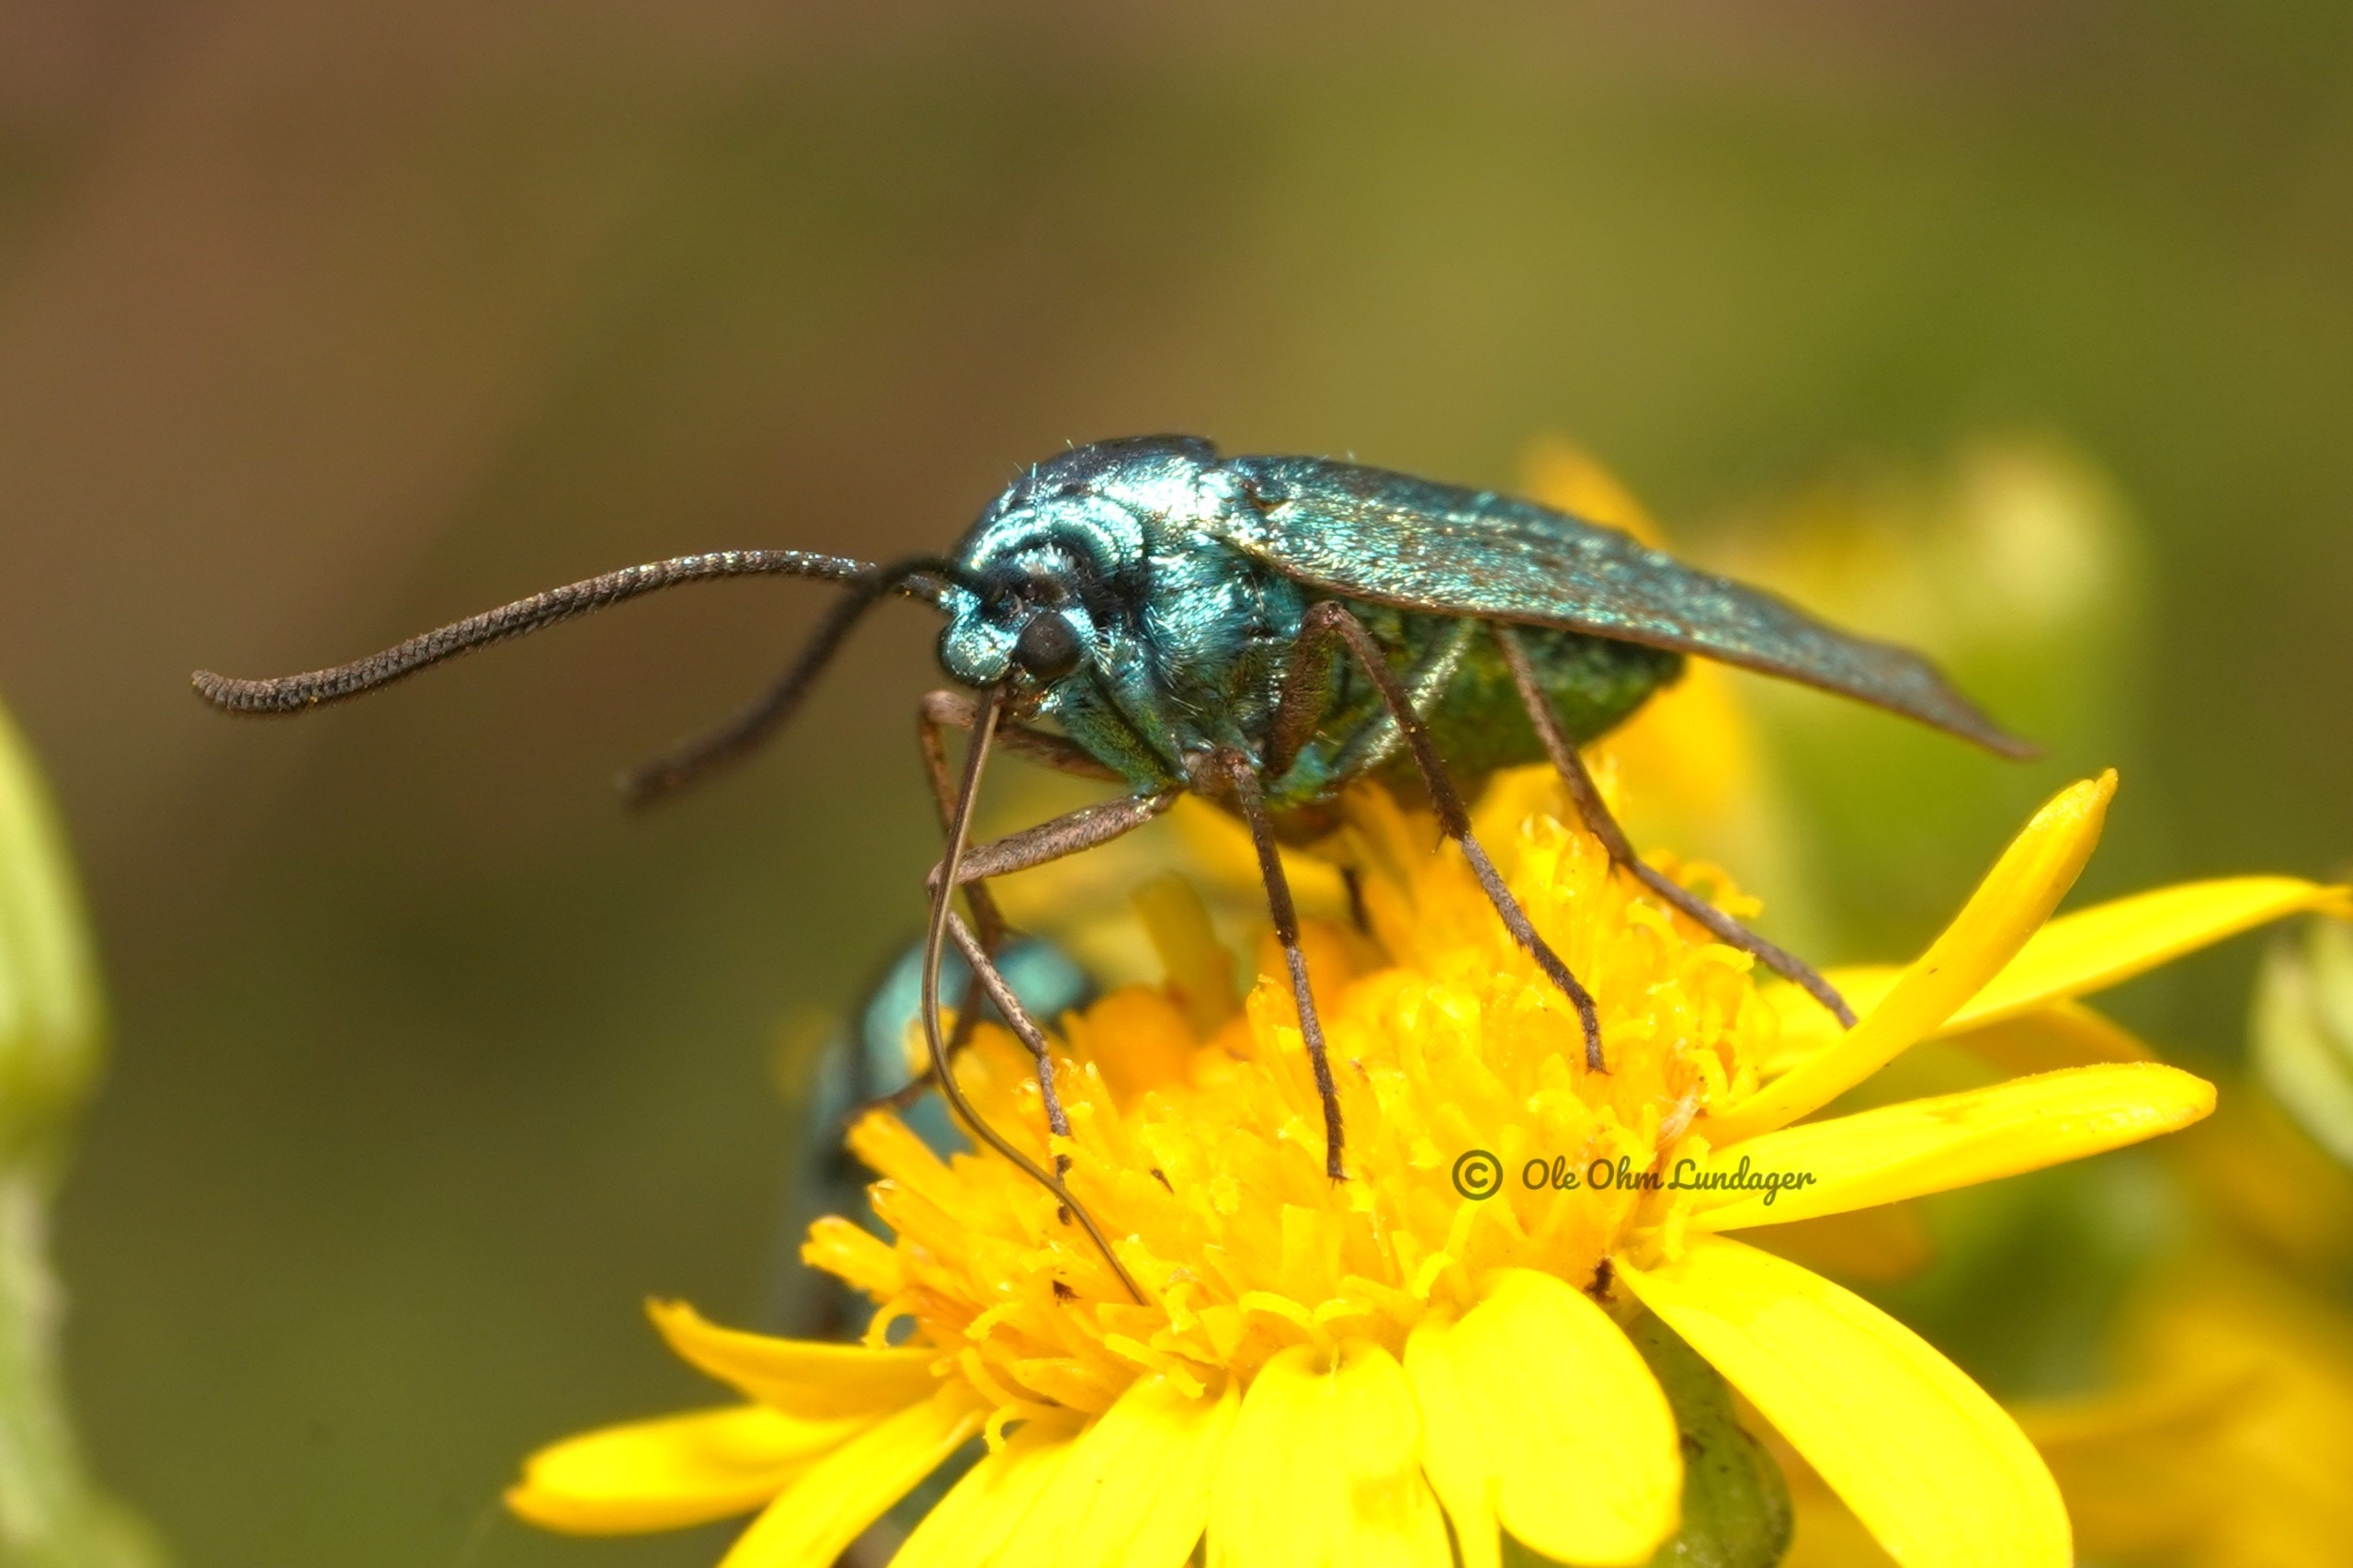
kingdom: Animalia
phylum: Arthropoda
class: Insecta
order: Lepidoptera
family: Zygaenidae
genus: Adscita
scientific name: Adscita statices
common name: Metalvinge
